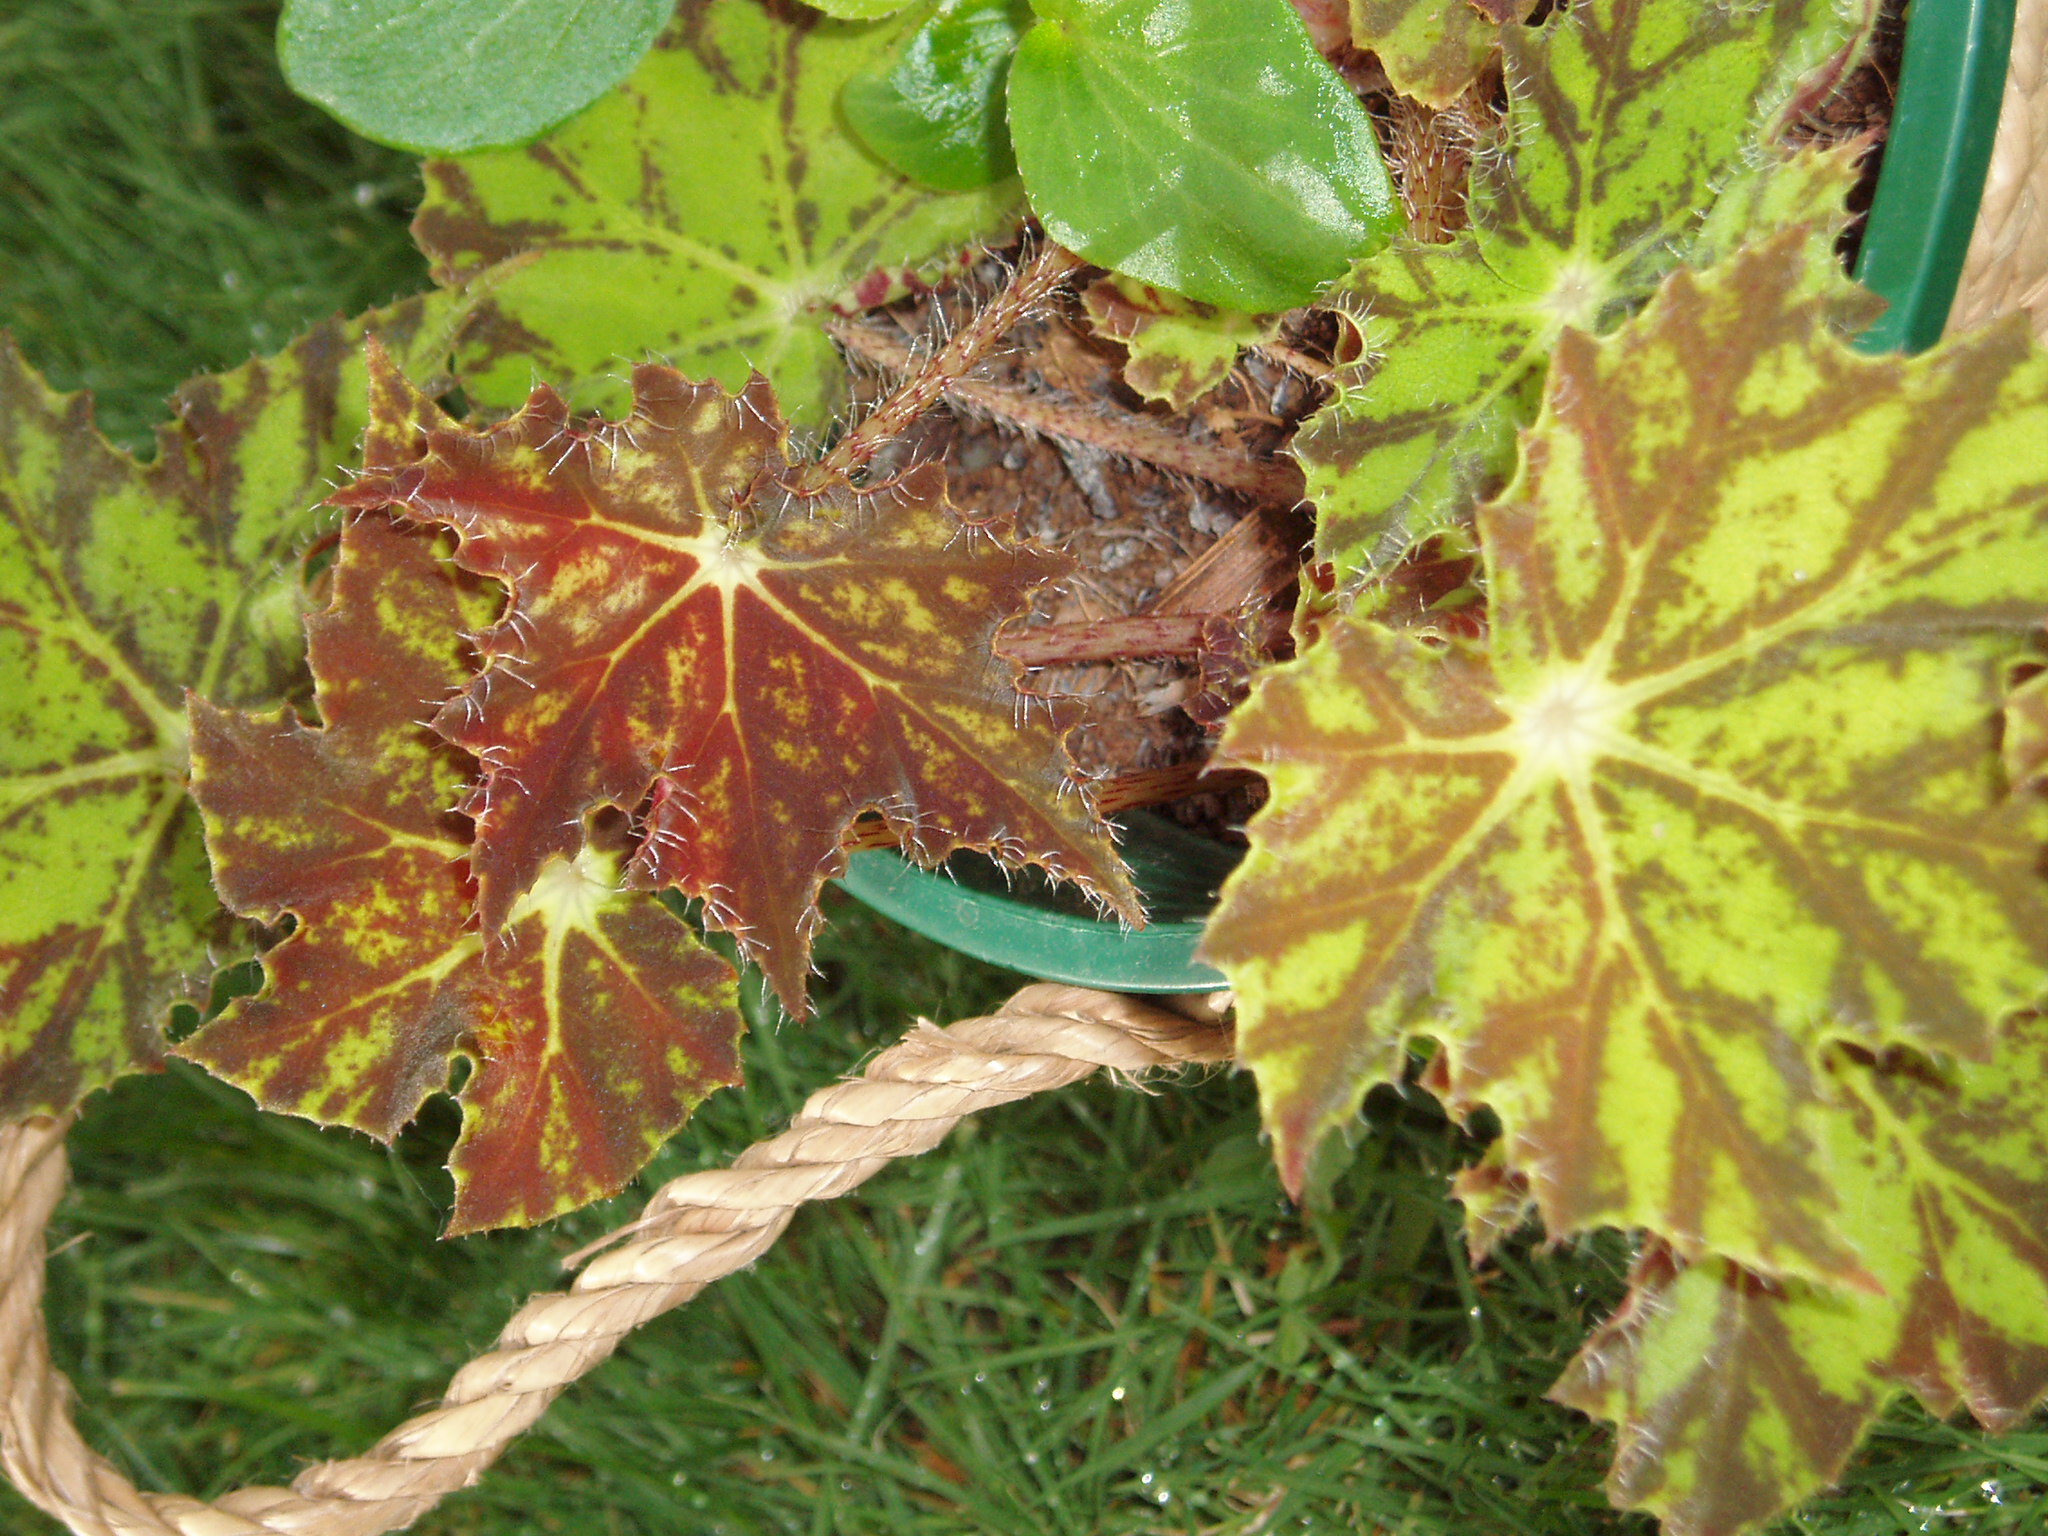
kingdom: Plantae
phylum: Tracheophyta
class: Magnoliopsida
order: Cucurbitales
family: Begoniaceae
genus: Begonia
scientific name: Begonia hybrida
